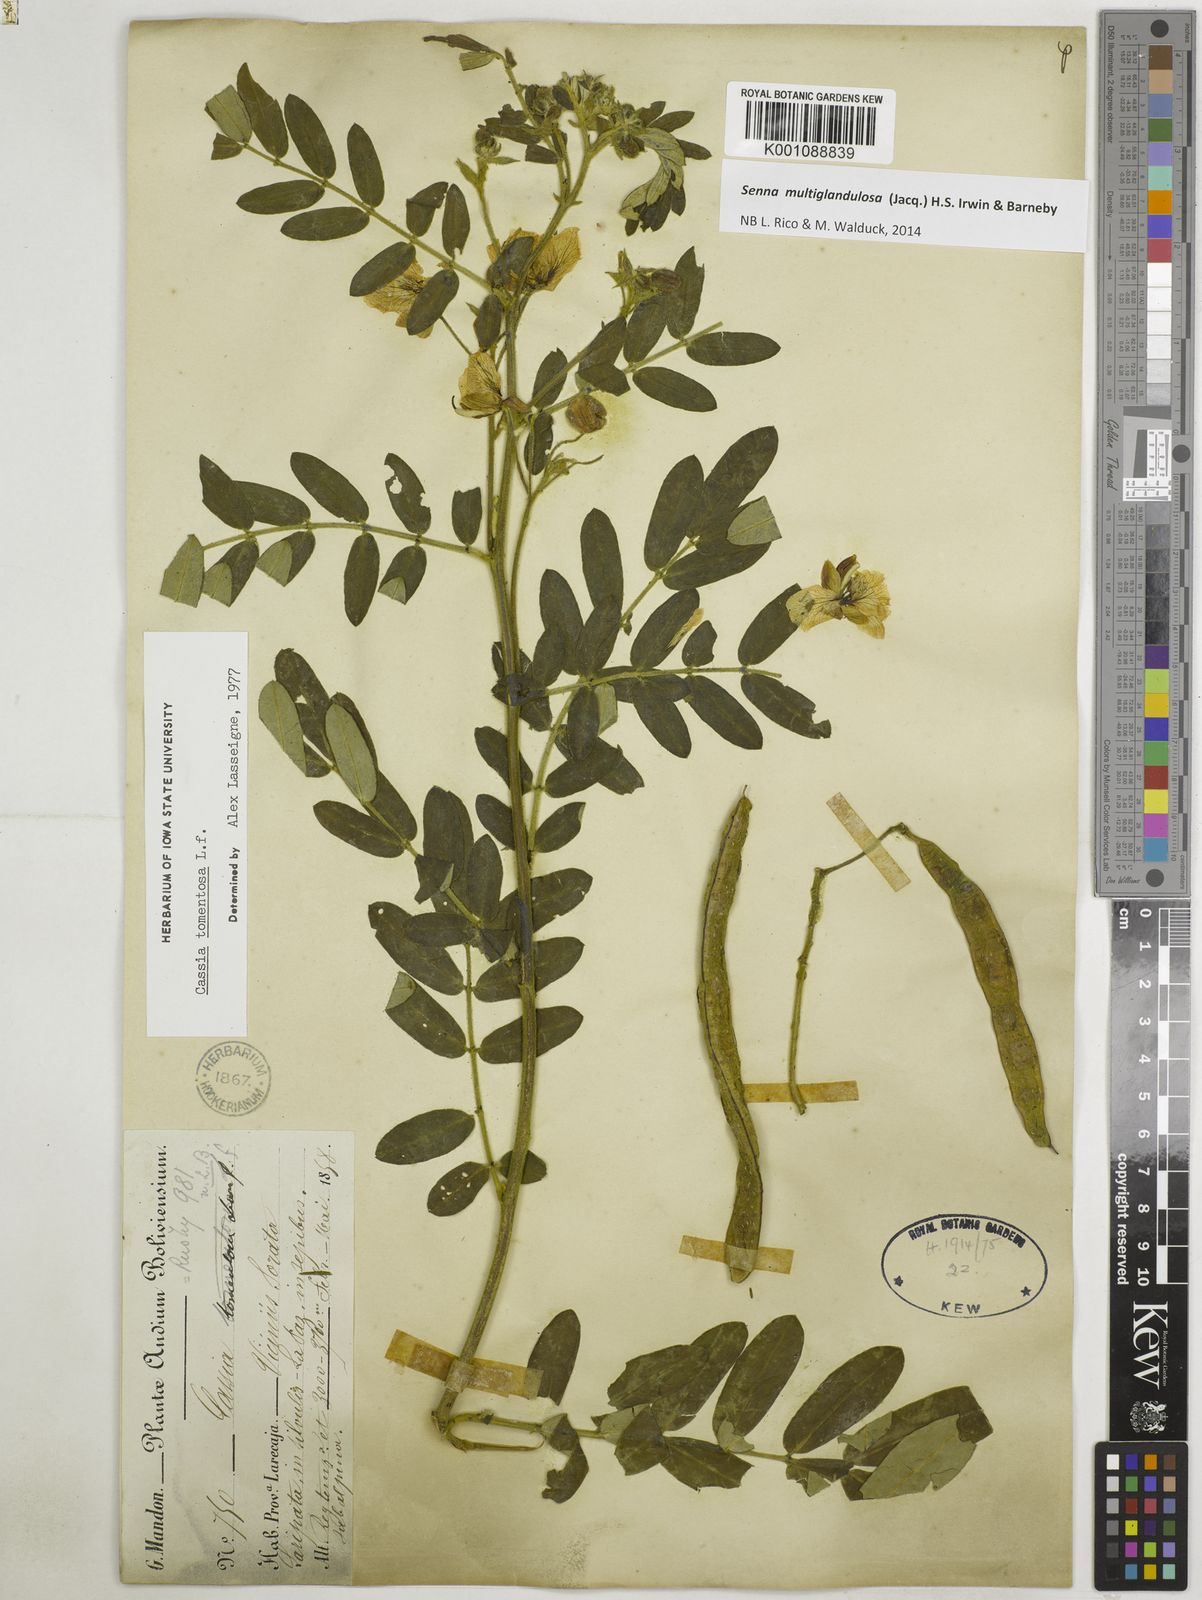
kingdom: Plantae
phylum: Tracheophyta
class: Magnoliopsida
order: Fabales
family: Fabaceae
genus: Senna
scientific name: Senna multiglandulosa
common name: Glandular senna
